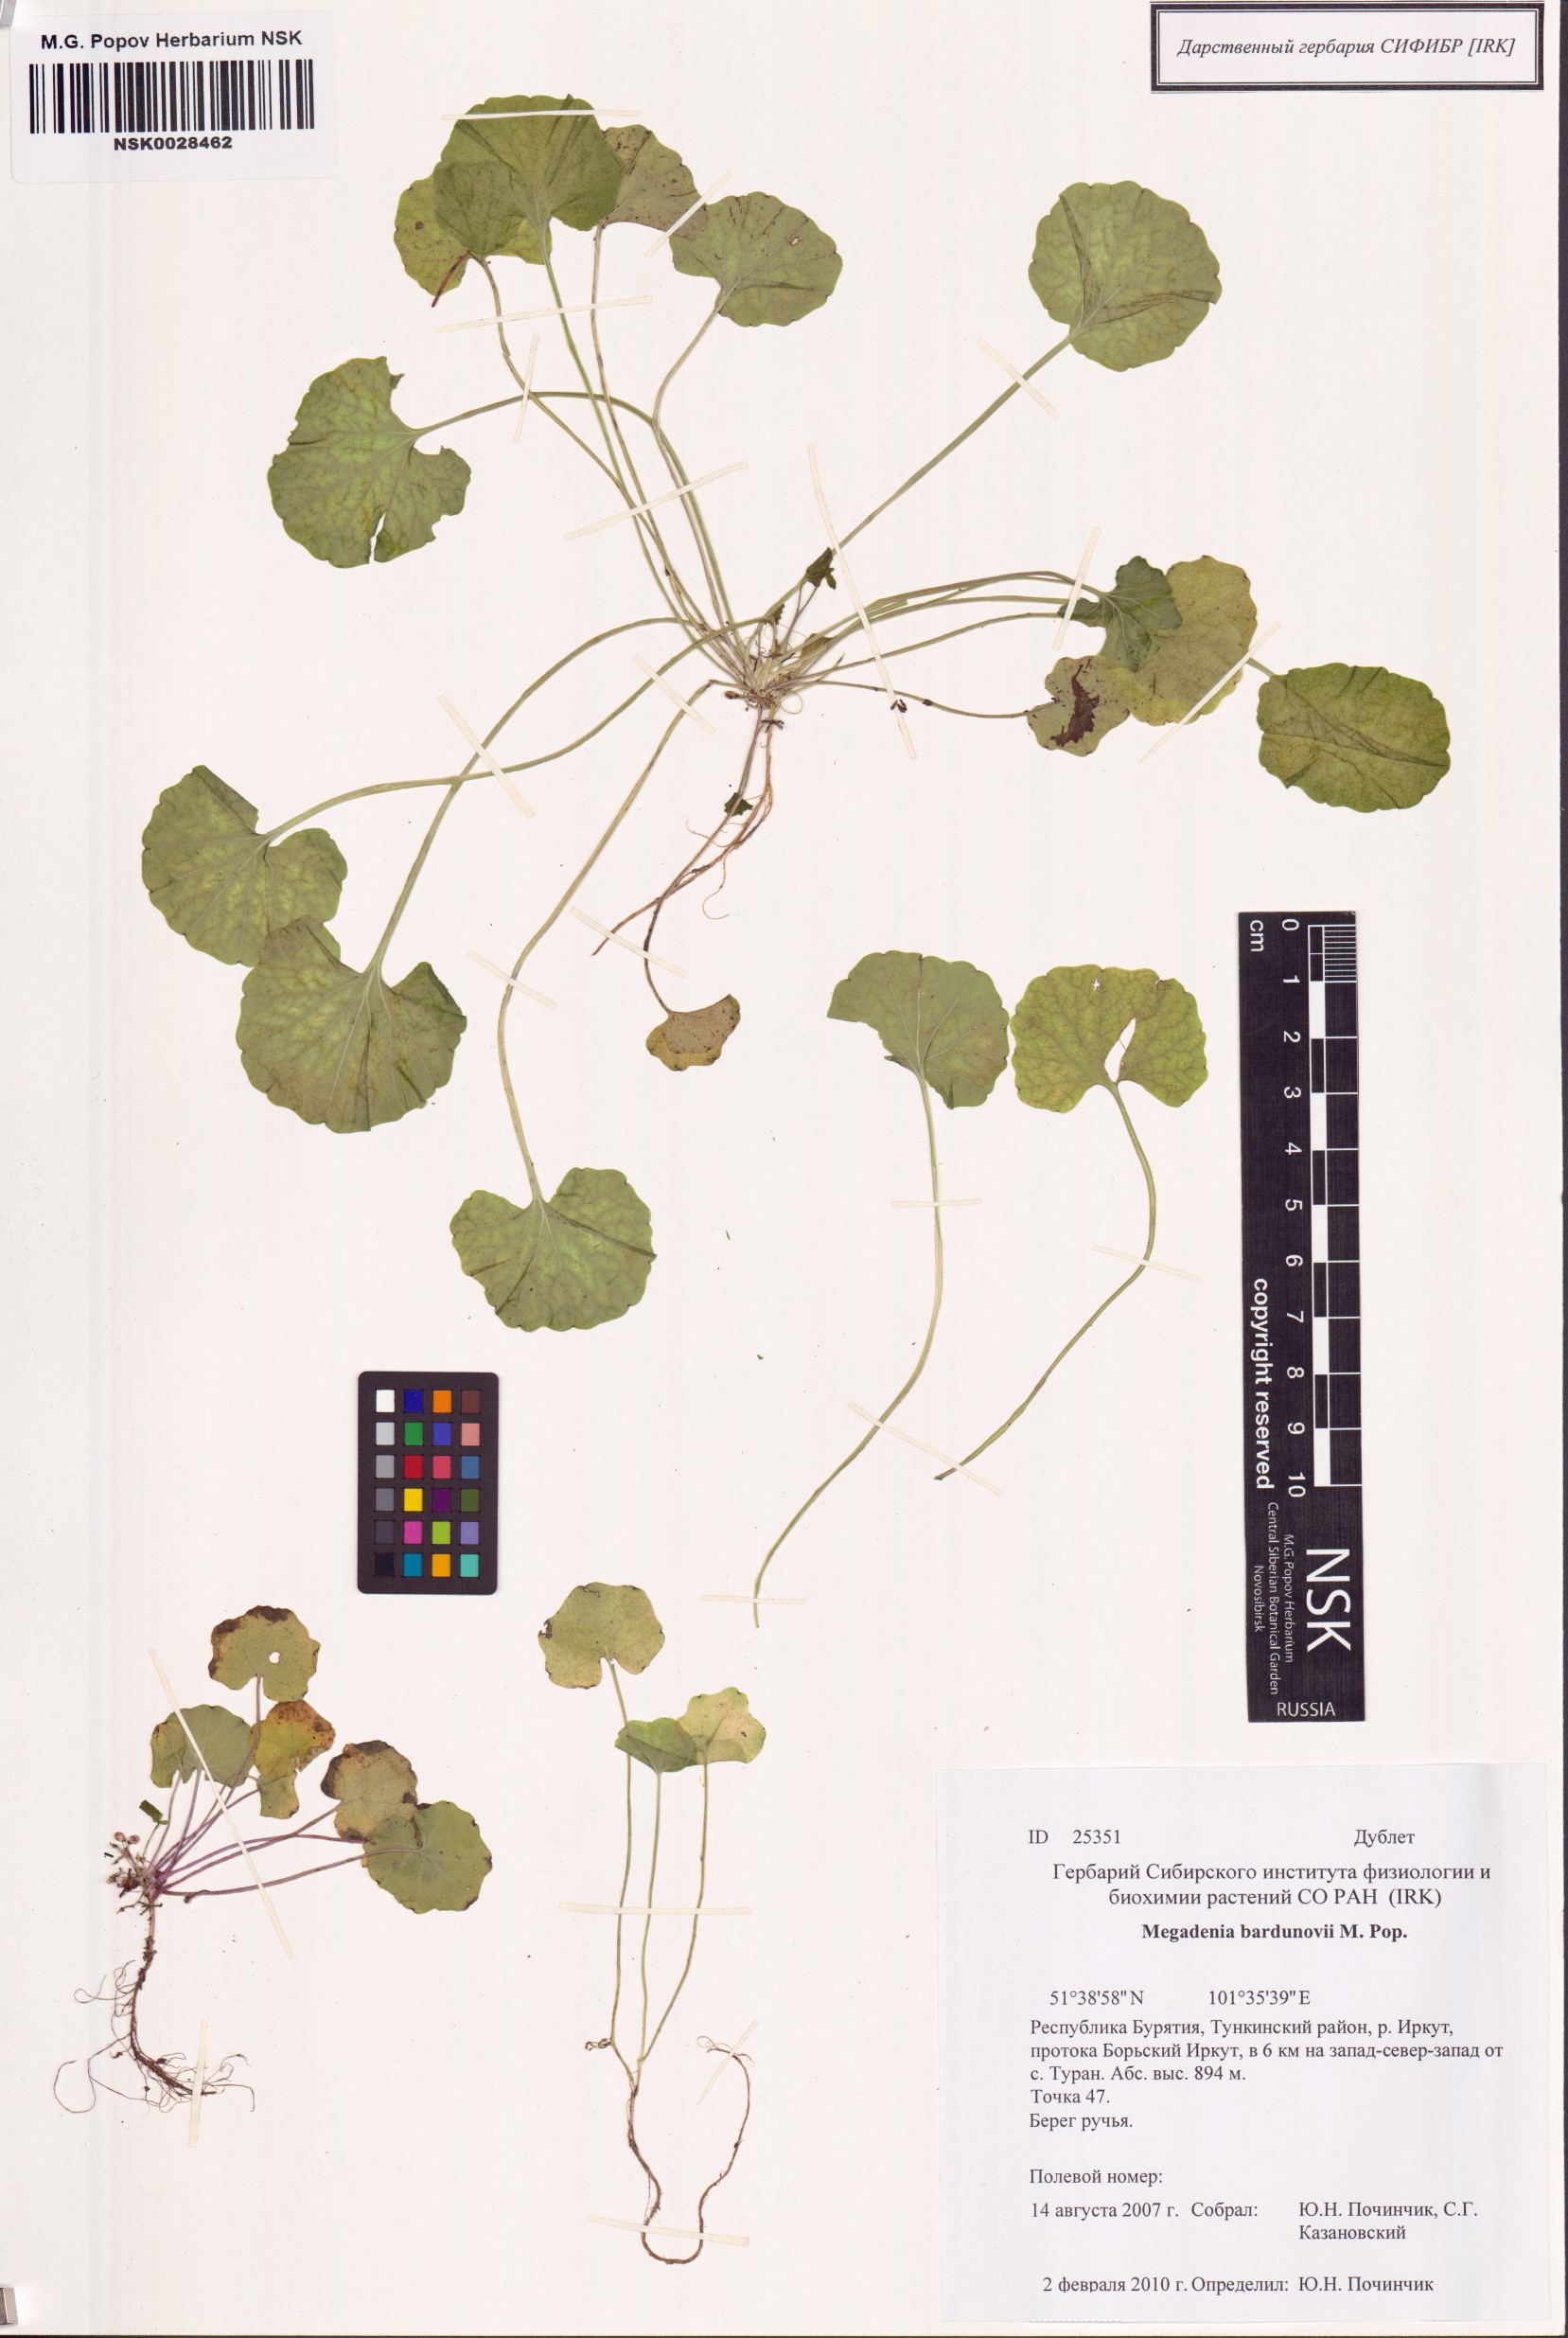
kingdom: Plantae
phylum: Tracheophyta
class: Magnoliopsida
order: Brassicales
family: Brassicaceae
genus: Megadenia
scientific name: Megadenia pygmaea
